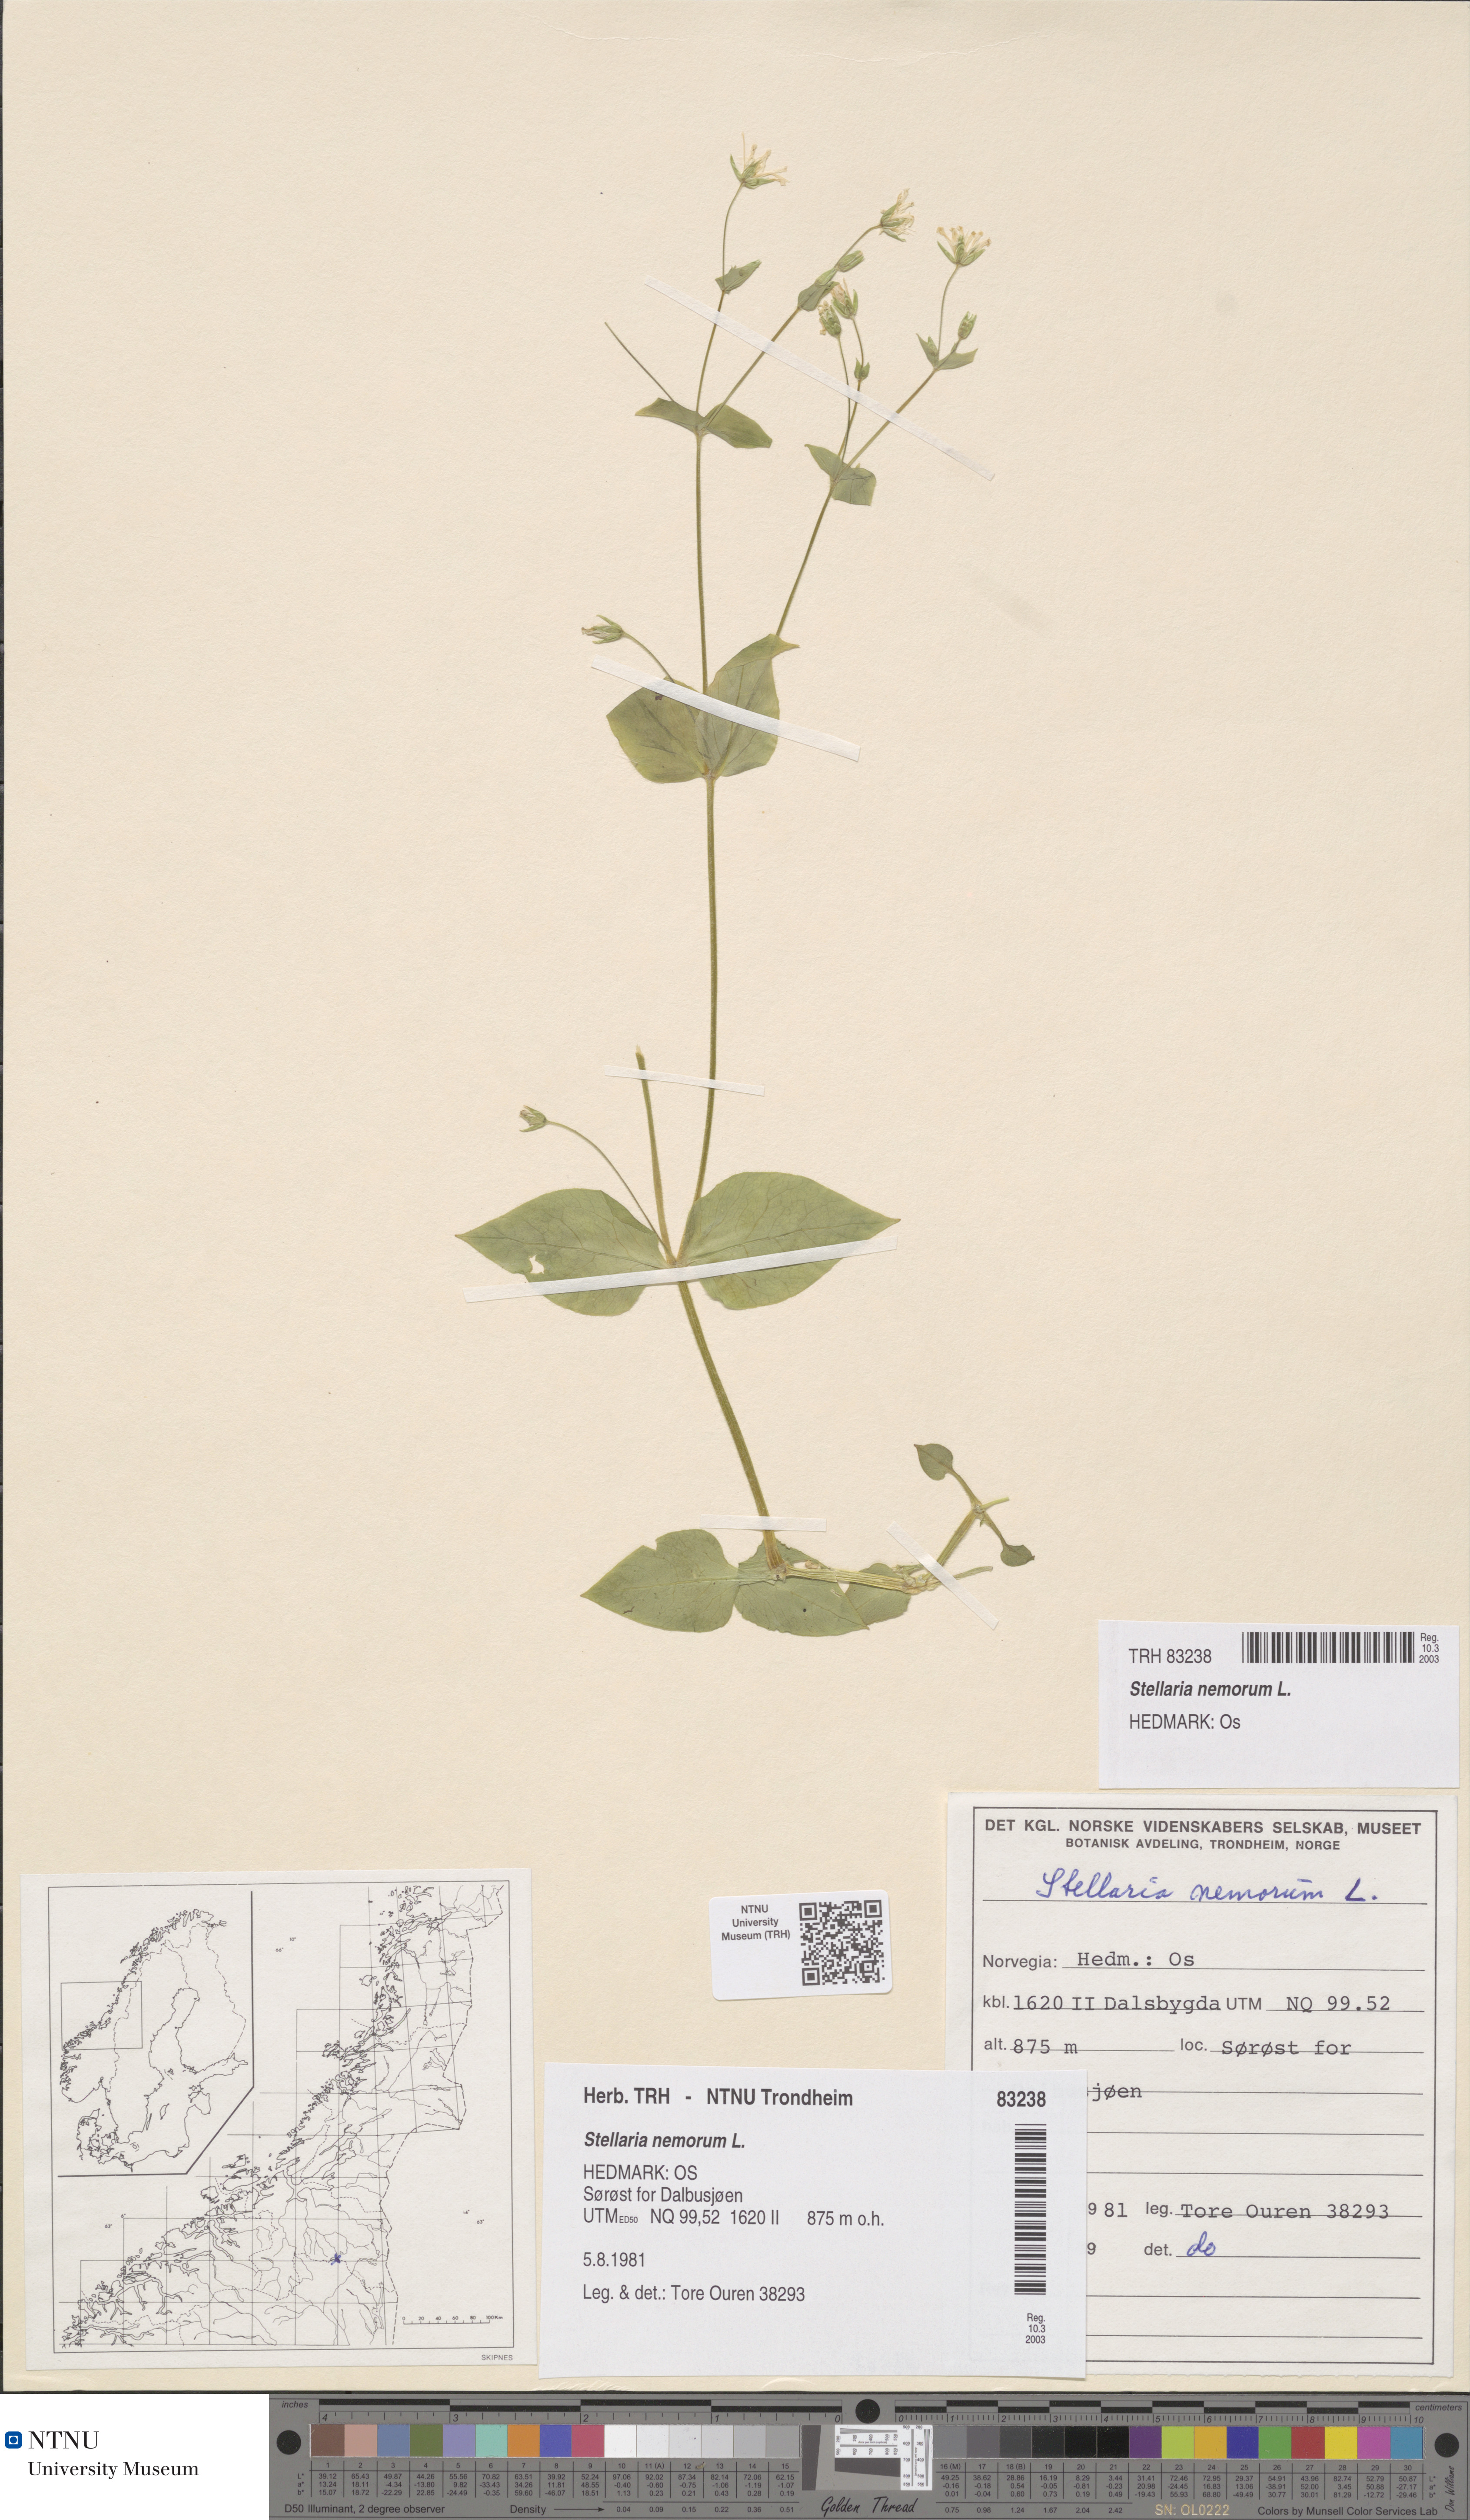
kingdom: Plantae
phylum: Tracheophyta
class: Magnoliopsida
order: Caryophyllales
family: Caryophyllaceae
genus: Stellaria
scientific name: Stellaria nemorum
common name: Wood stitchwort
